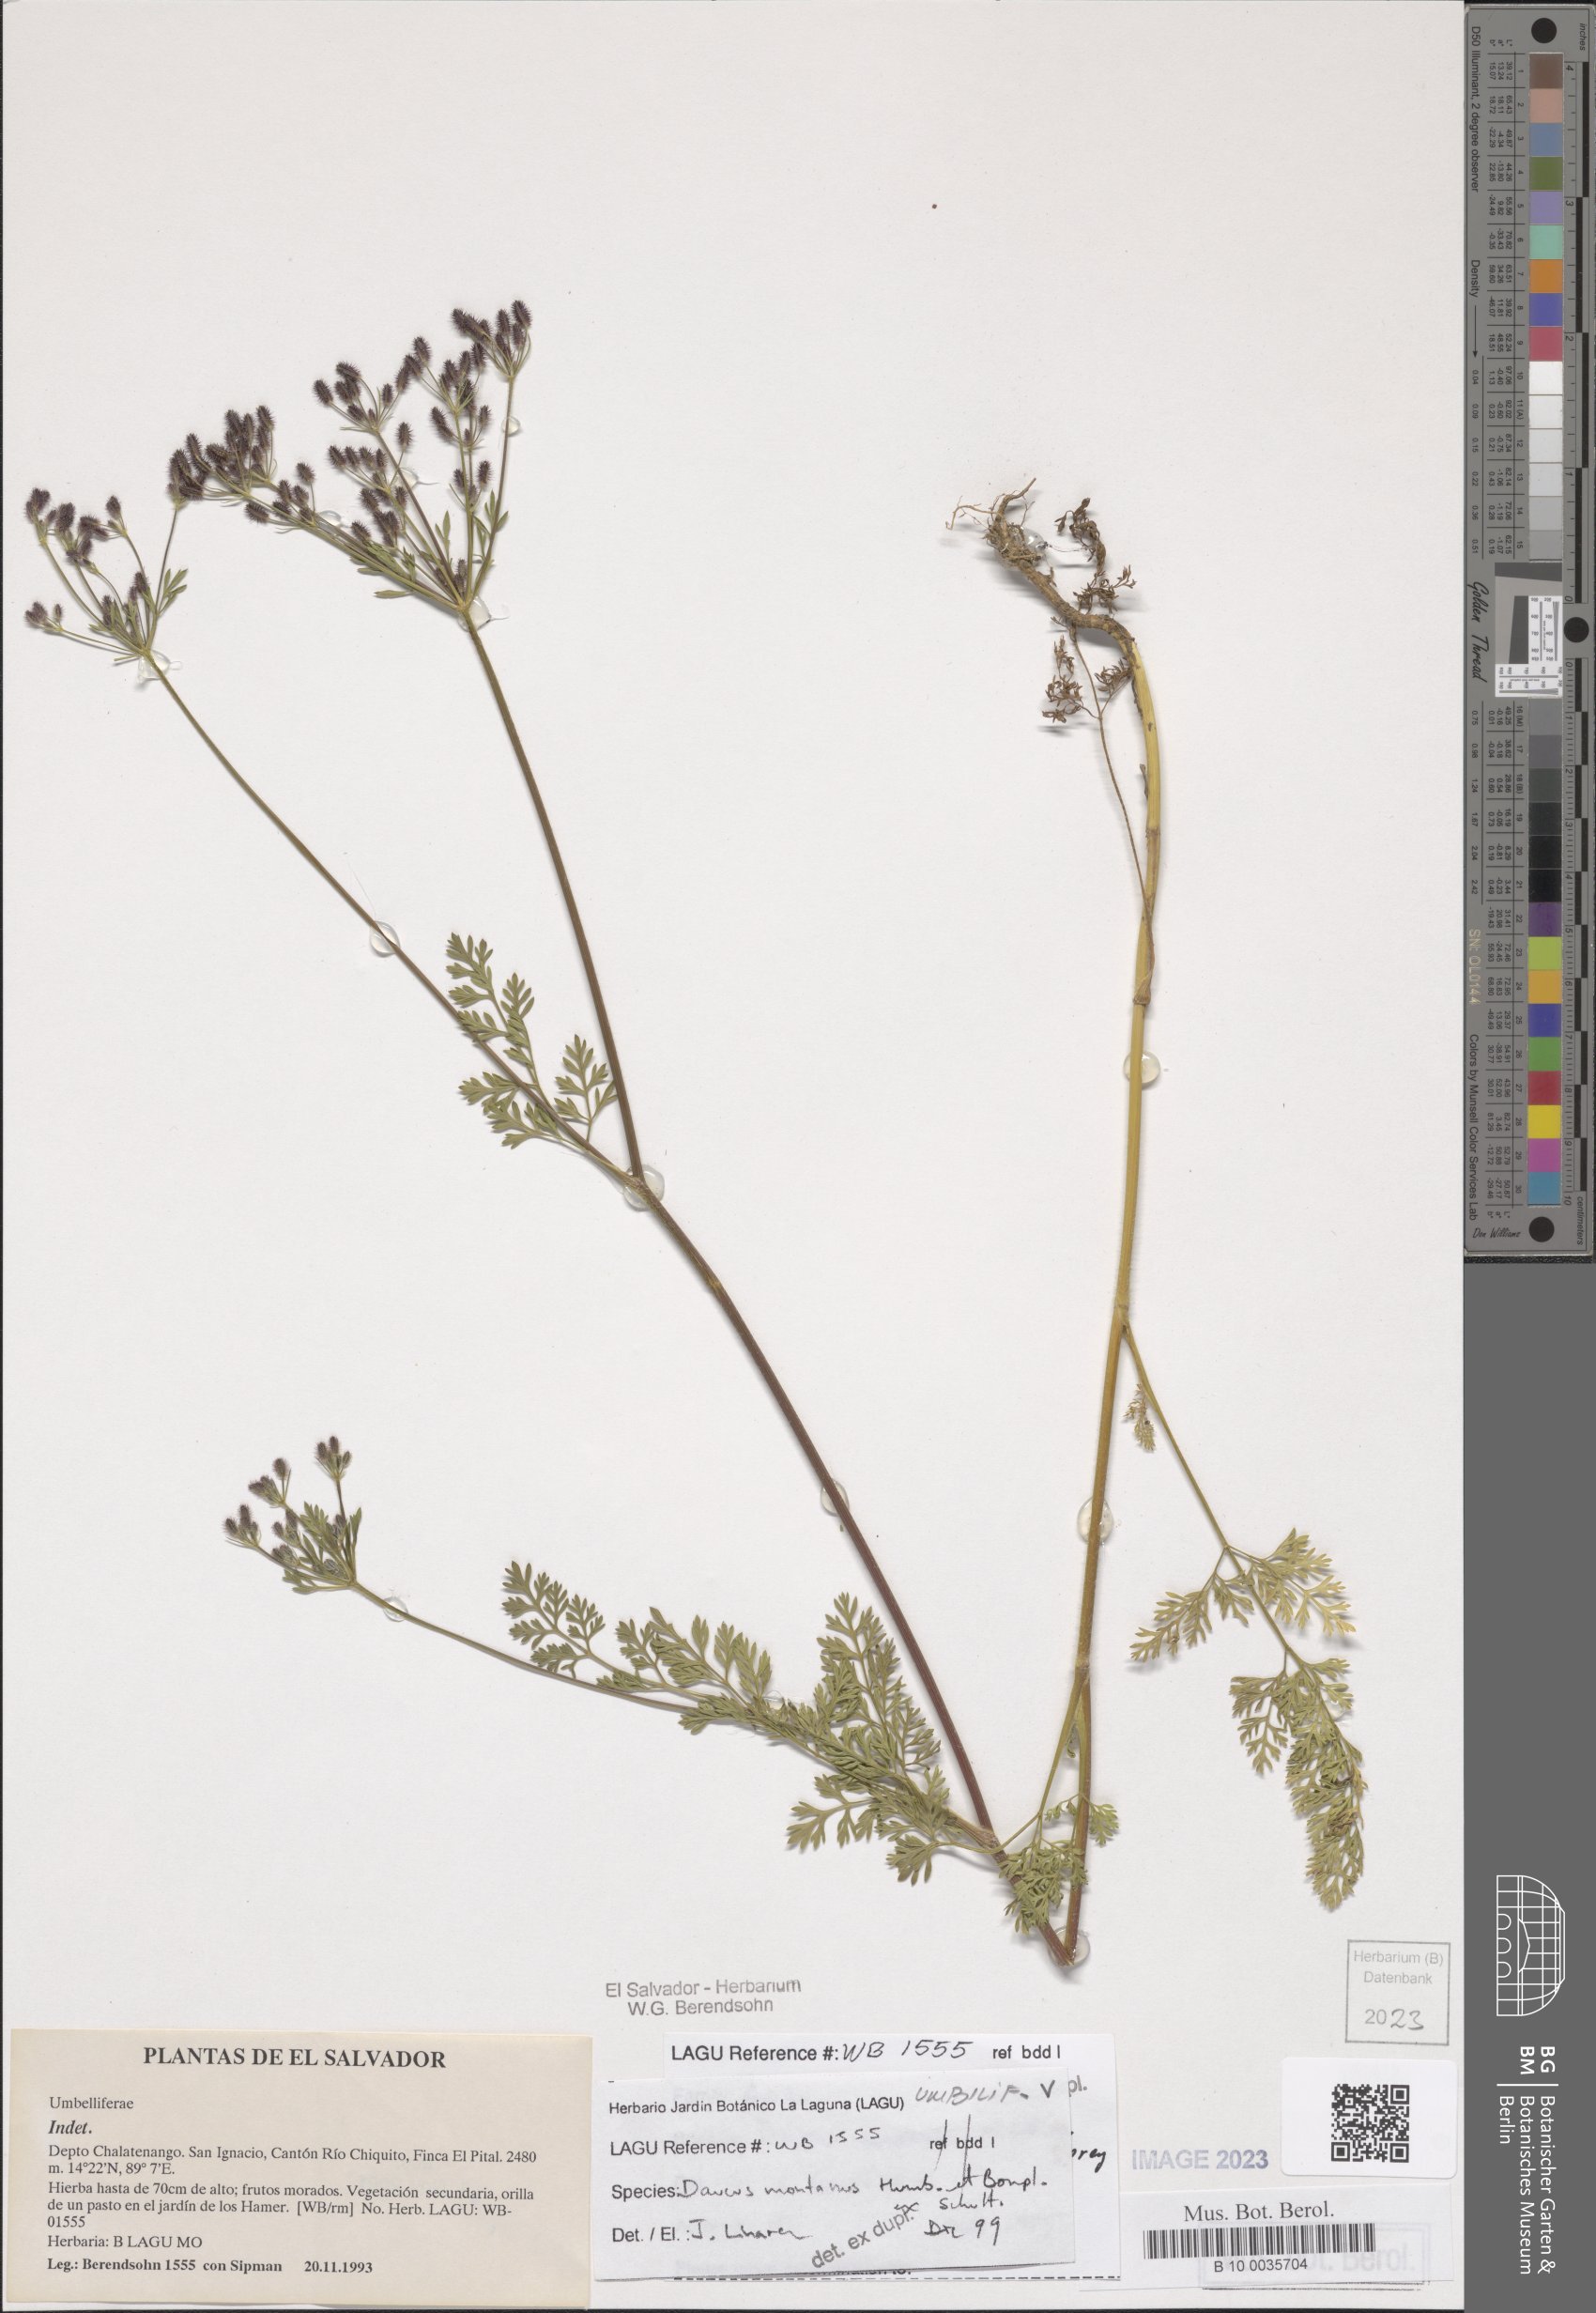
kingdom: Plantae
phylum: Tracheophyta
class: Magnoliopsida
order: Apiales
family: Apiaceae
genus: Daucus
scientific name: Daucus montanus
